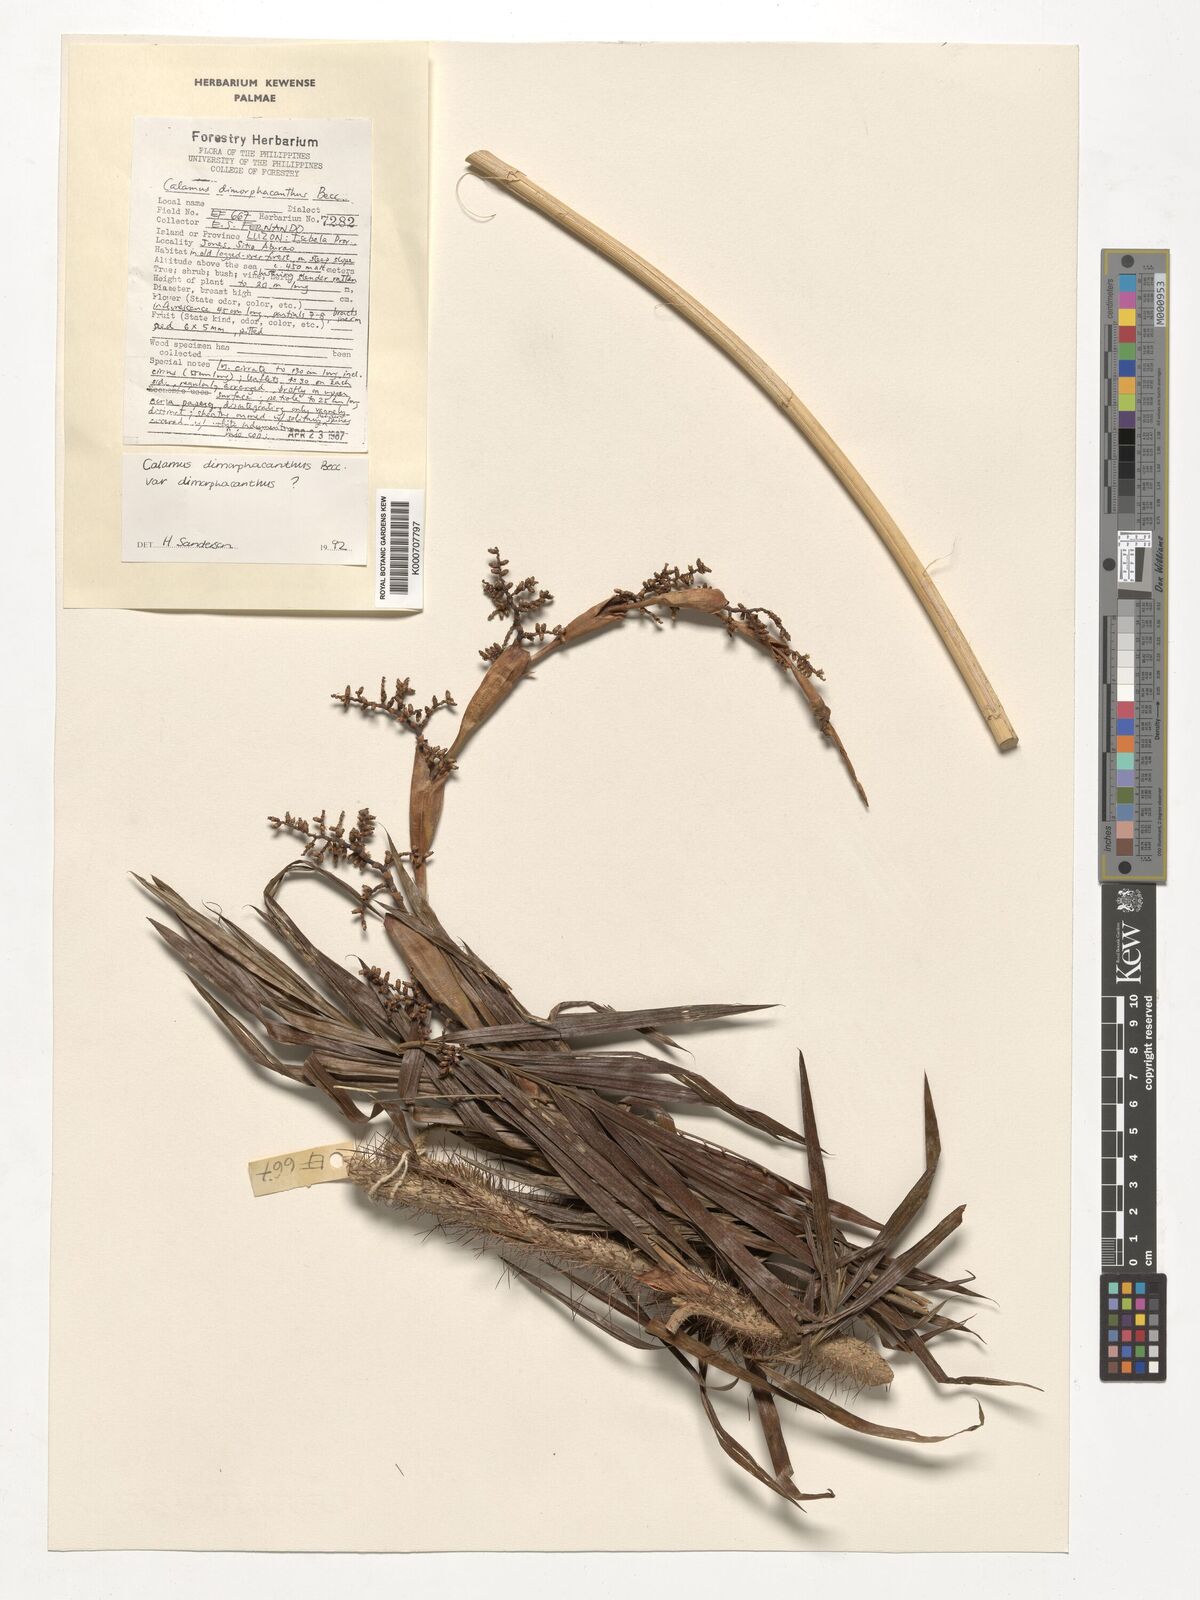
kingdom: Plantae
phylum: Tracheophyta
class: Liliopsida
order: Arecales
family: Arecaceae
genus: Calamus
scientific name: Calamus siphonospathus
